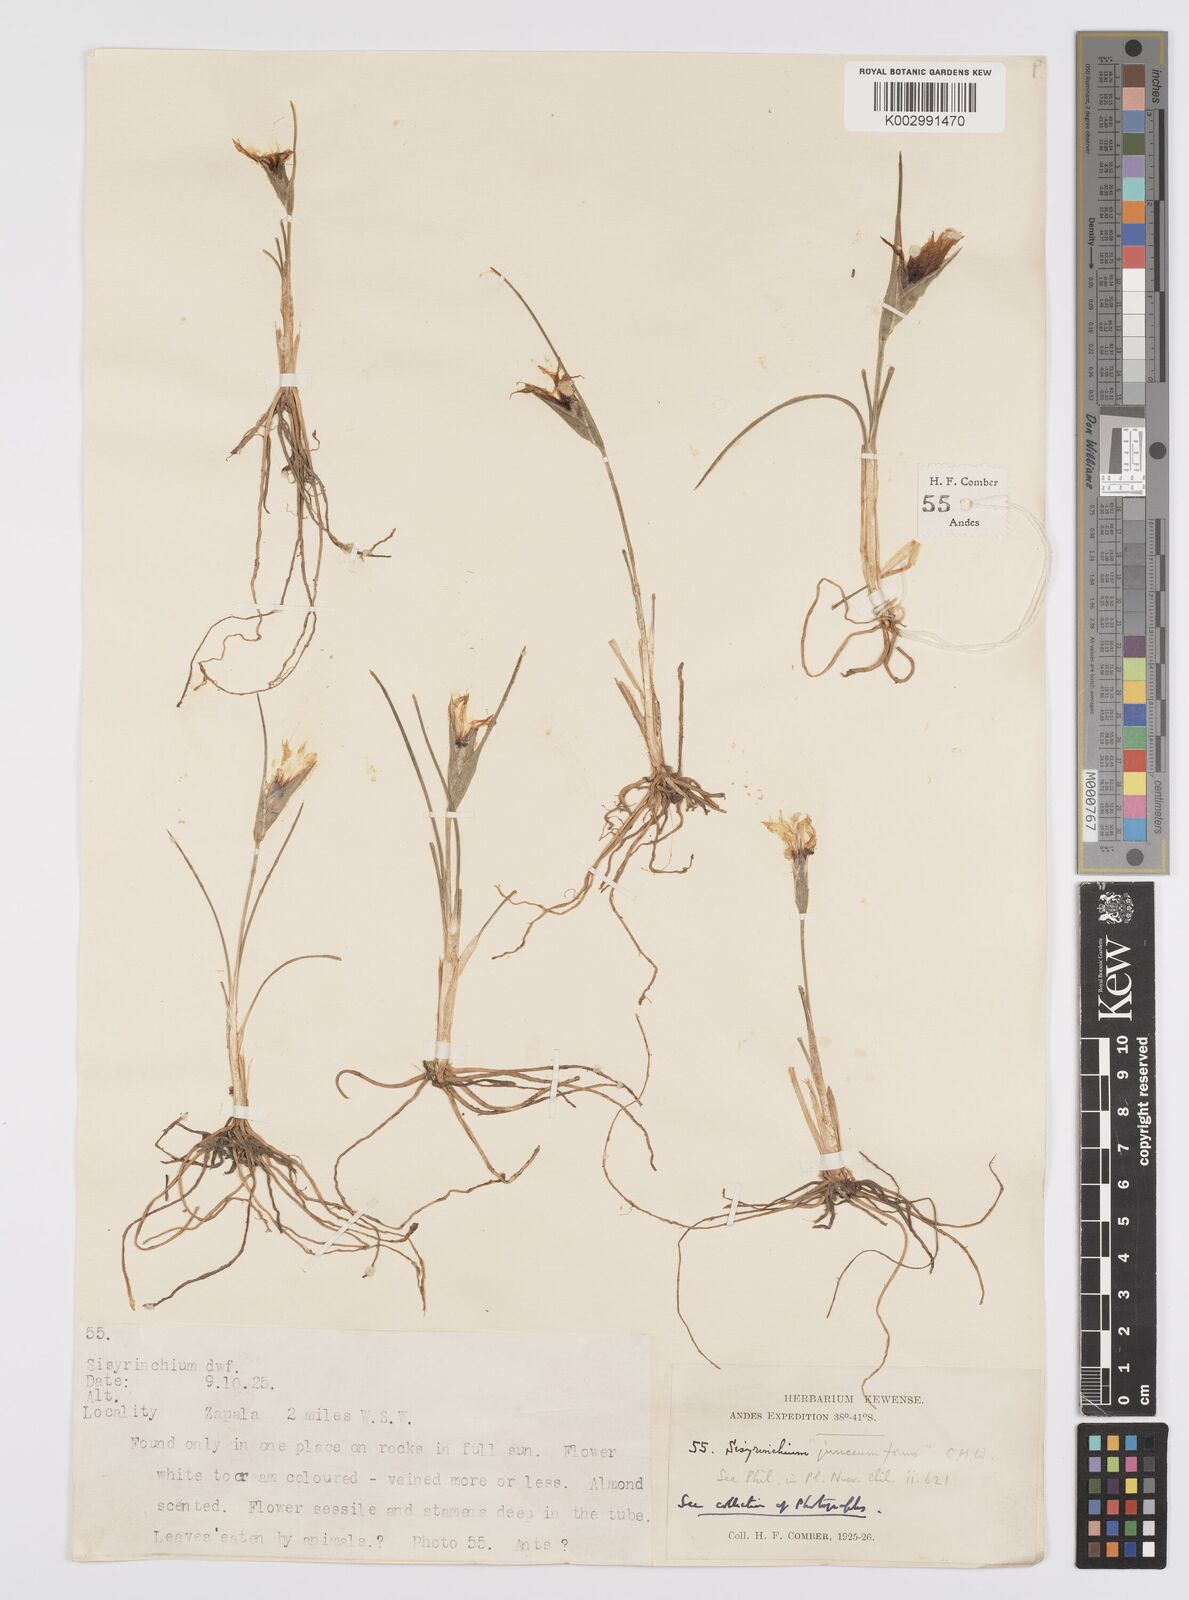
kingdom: Plantae
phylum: Tracheophyta
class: Liliopsida
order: Asparagales
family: Iridaceae
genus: Olsynium
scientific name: Olsynium junceum
